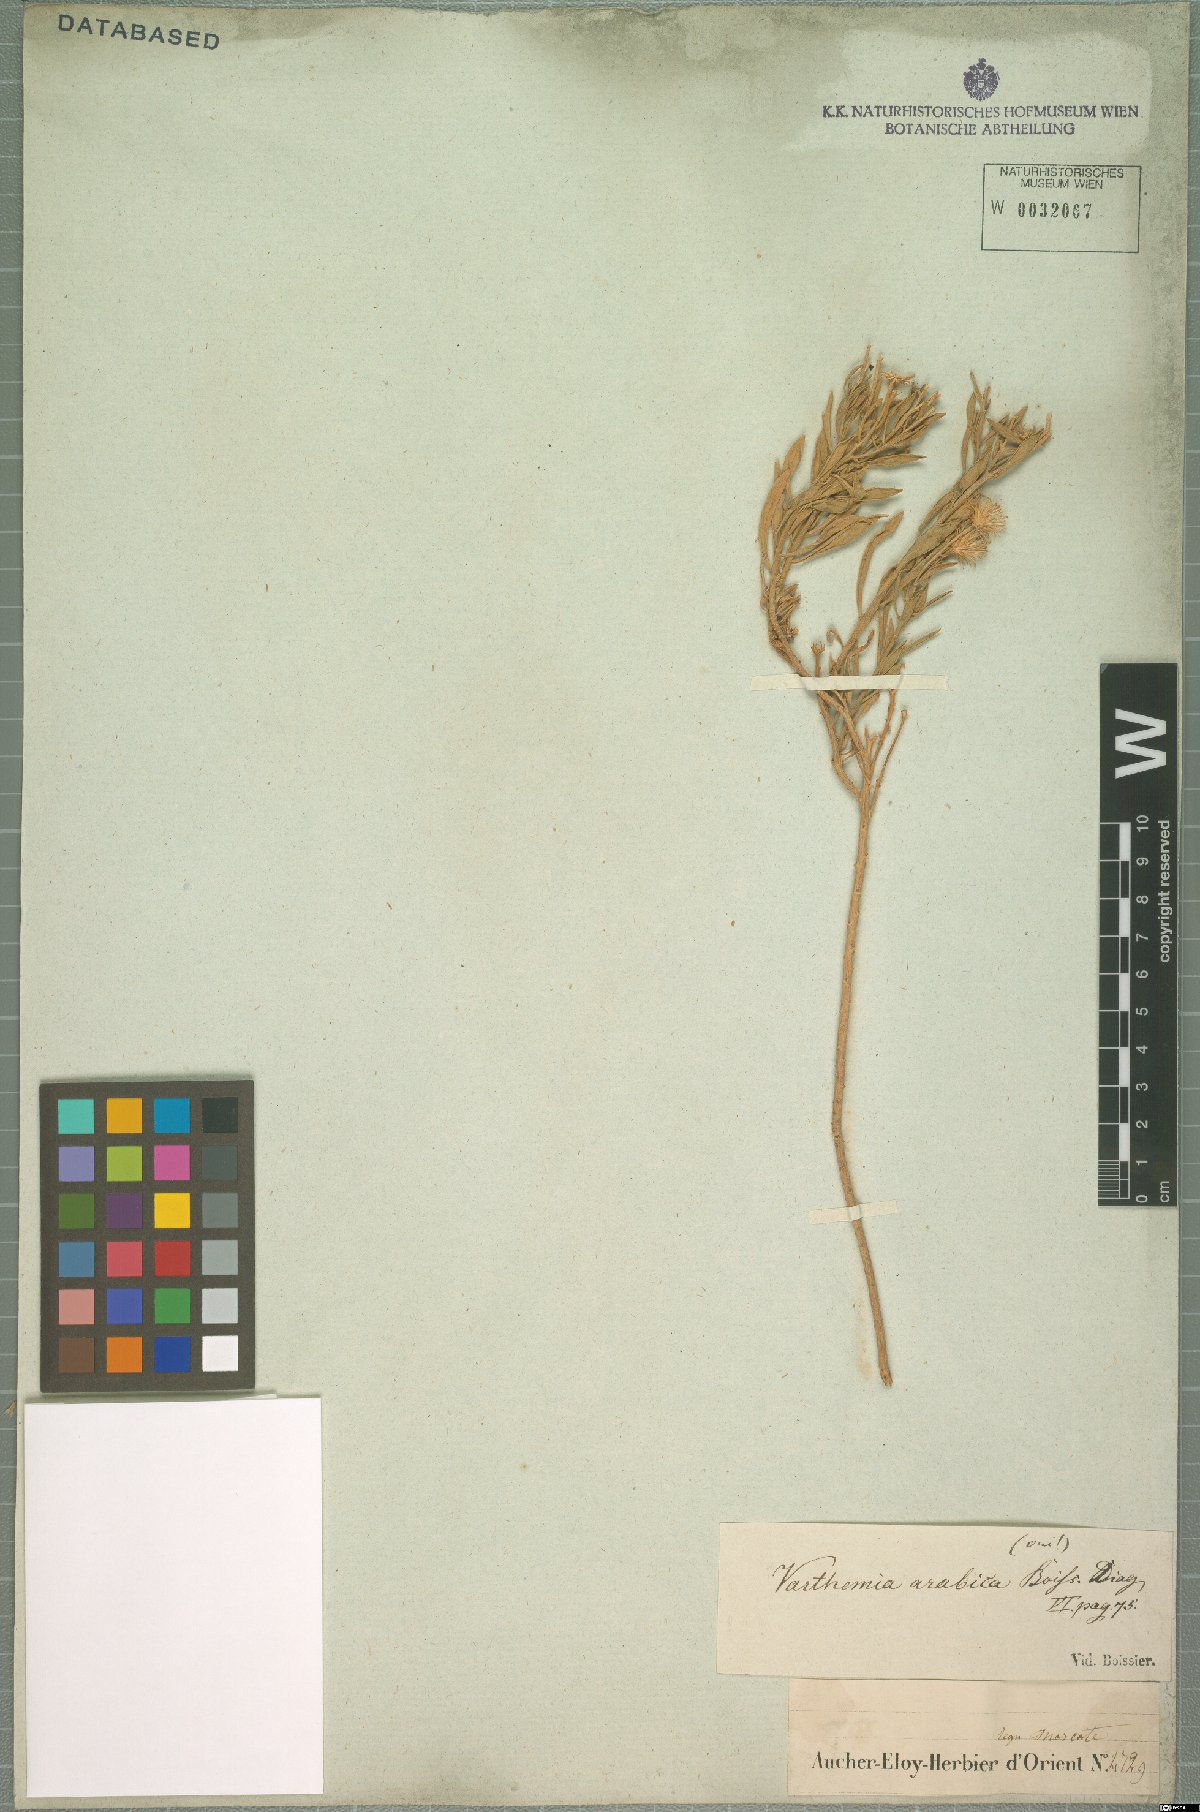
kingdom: Plantae
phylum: Tracheophyta
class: Magnoliopsida
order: Asterales
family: Asteraceae
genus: Pluchea
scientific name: Pluchea arabica
